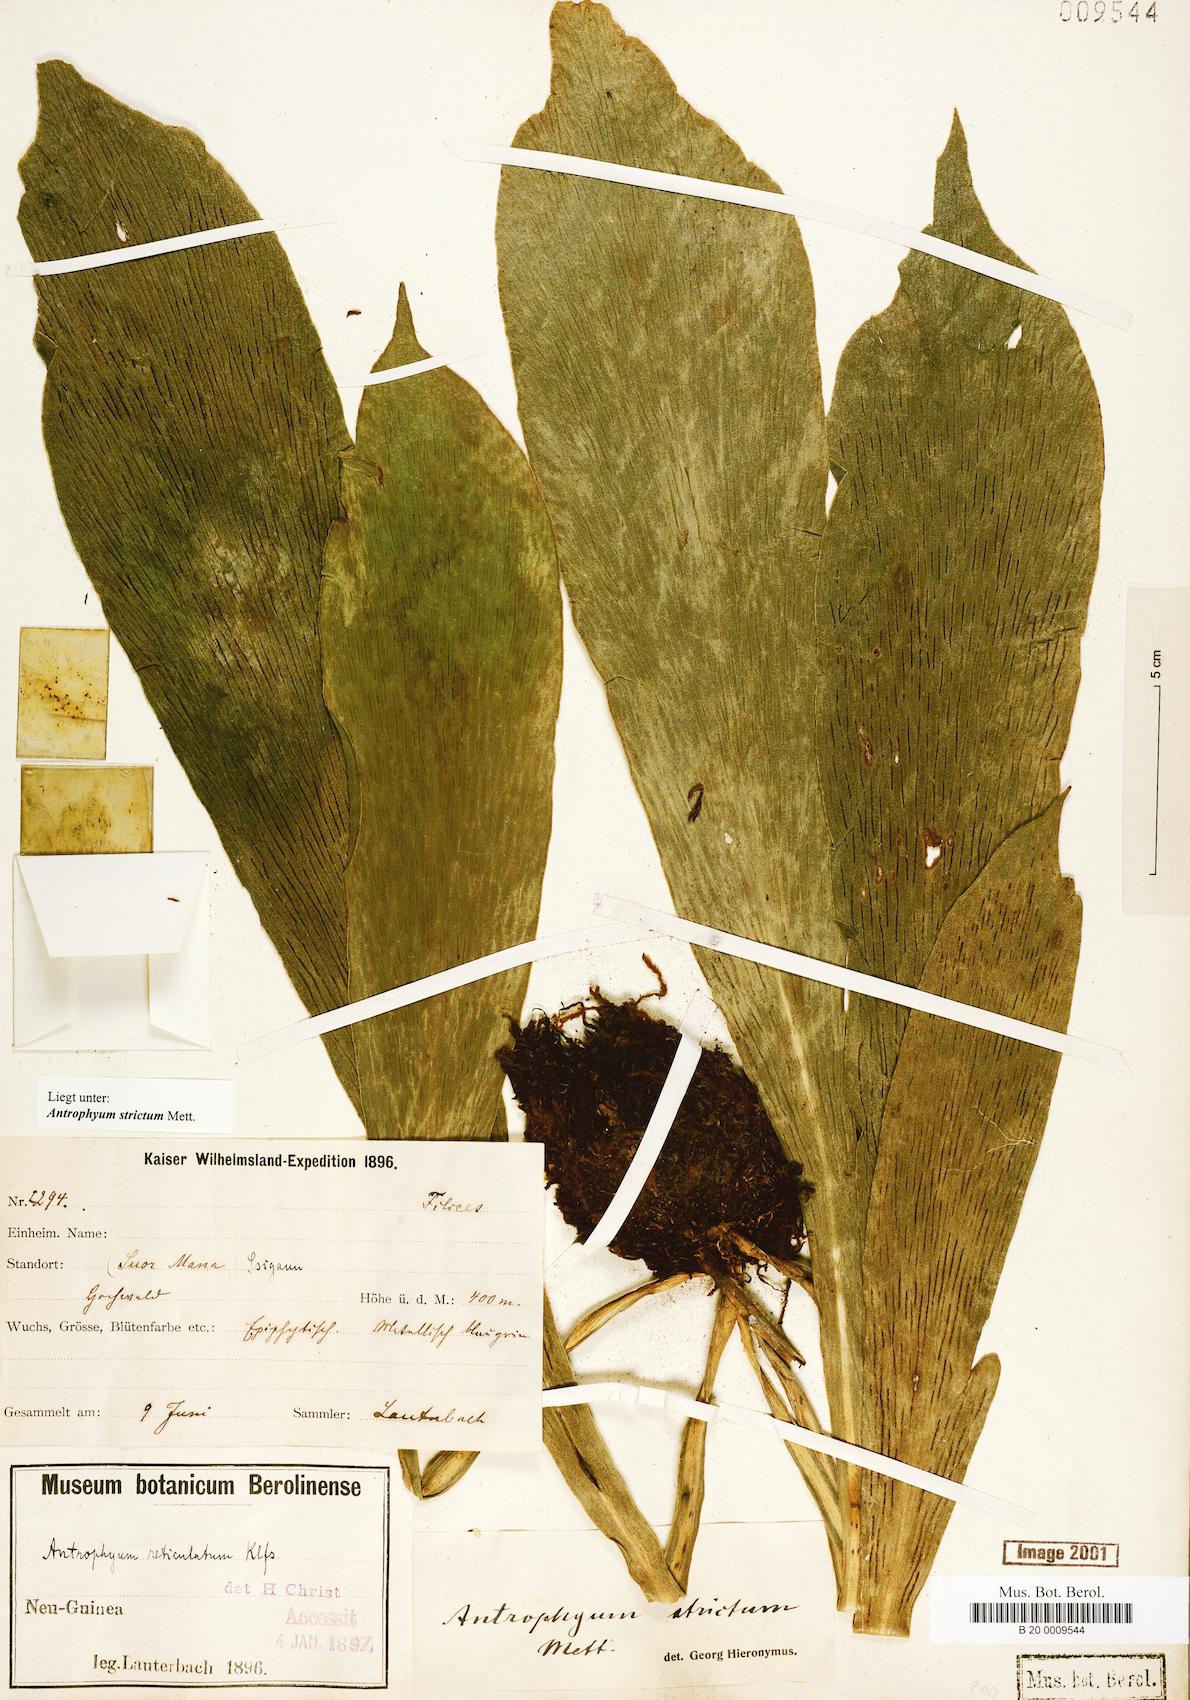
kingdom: Plantae
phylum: Tracheophyta
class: Polypodiopsida
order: Polypodiales
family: Pteridaceae
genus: Antrophyum
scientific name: Antrophyum strictum
